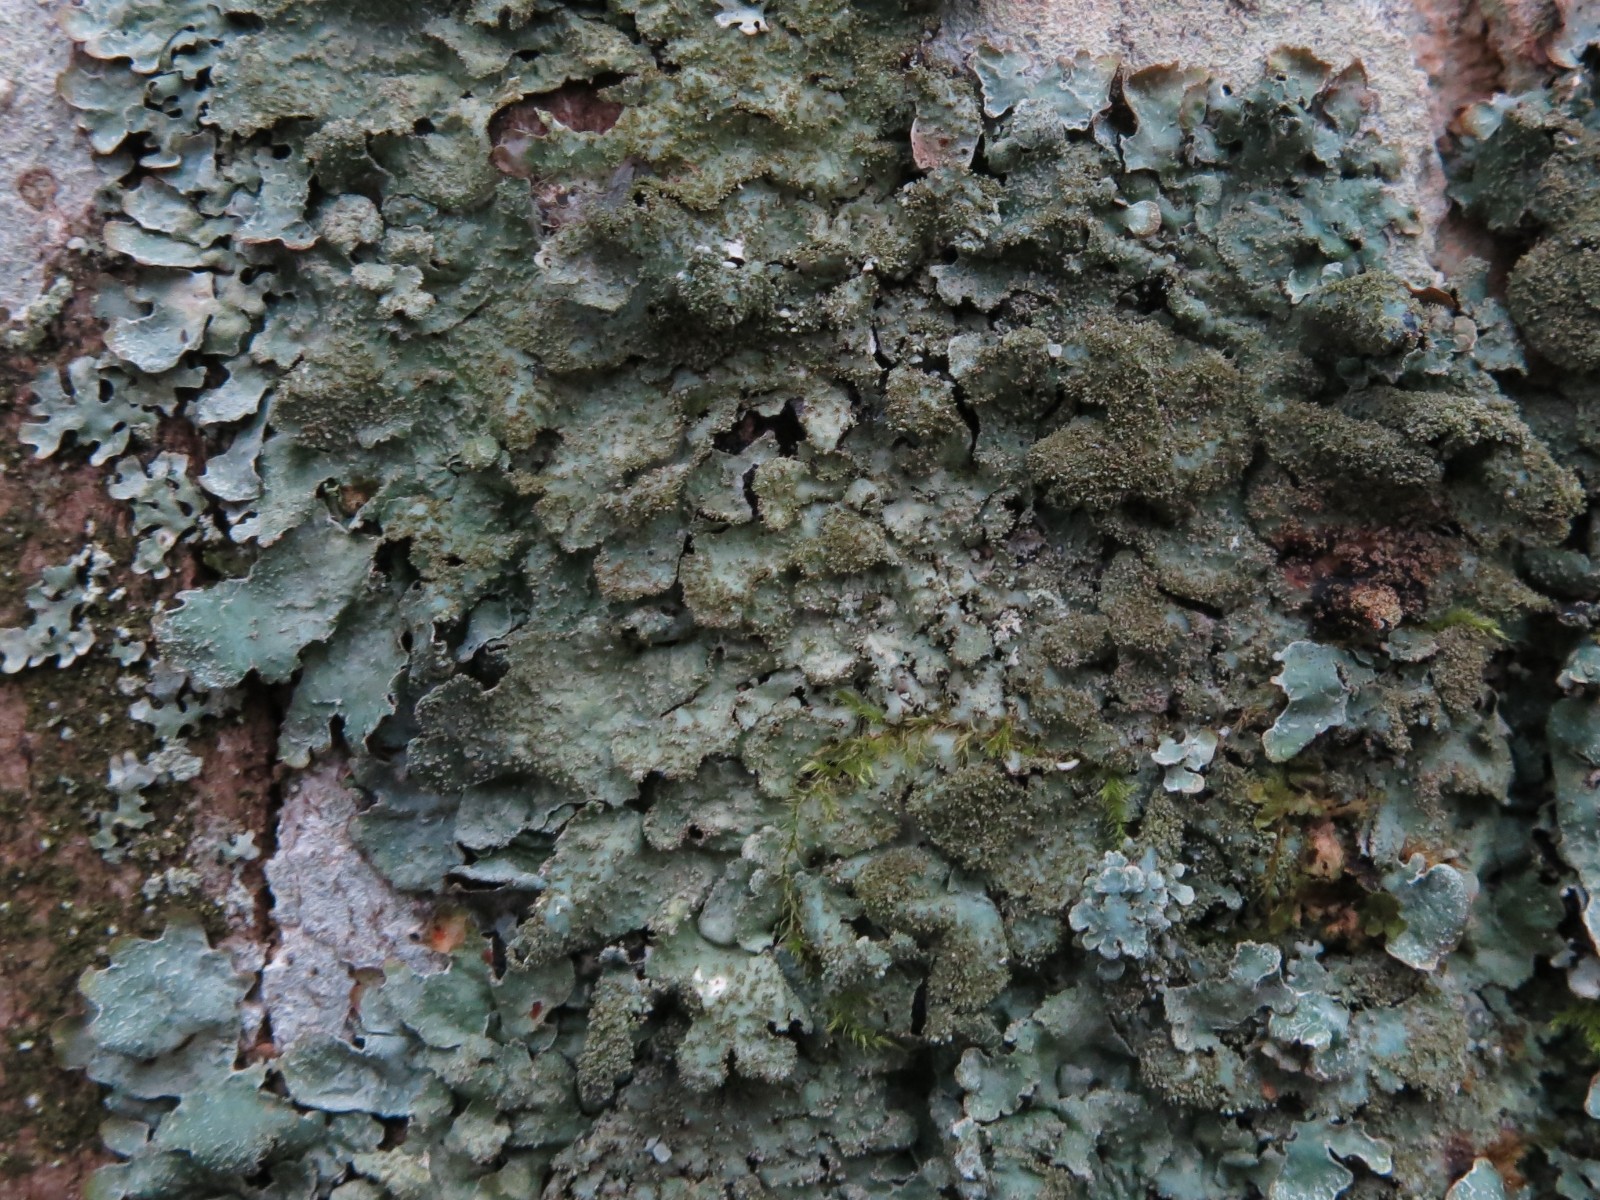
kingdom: Fungi
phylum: Ascomycota
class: Lecanoromycetes
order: Lecanorales
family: Parmeliaceae
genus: Parmelia
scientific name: Parmelia saxatilis
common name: farve-skållav
